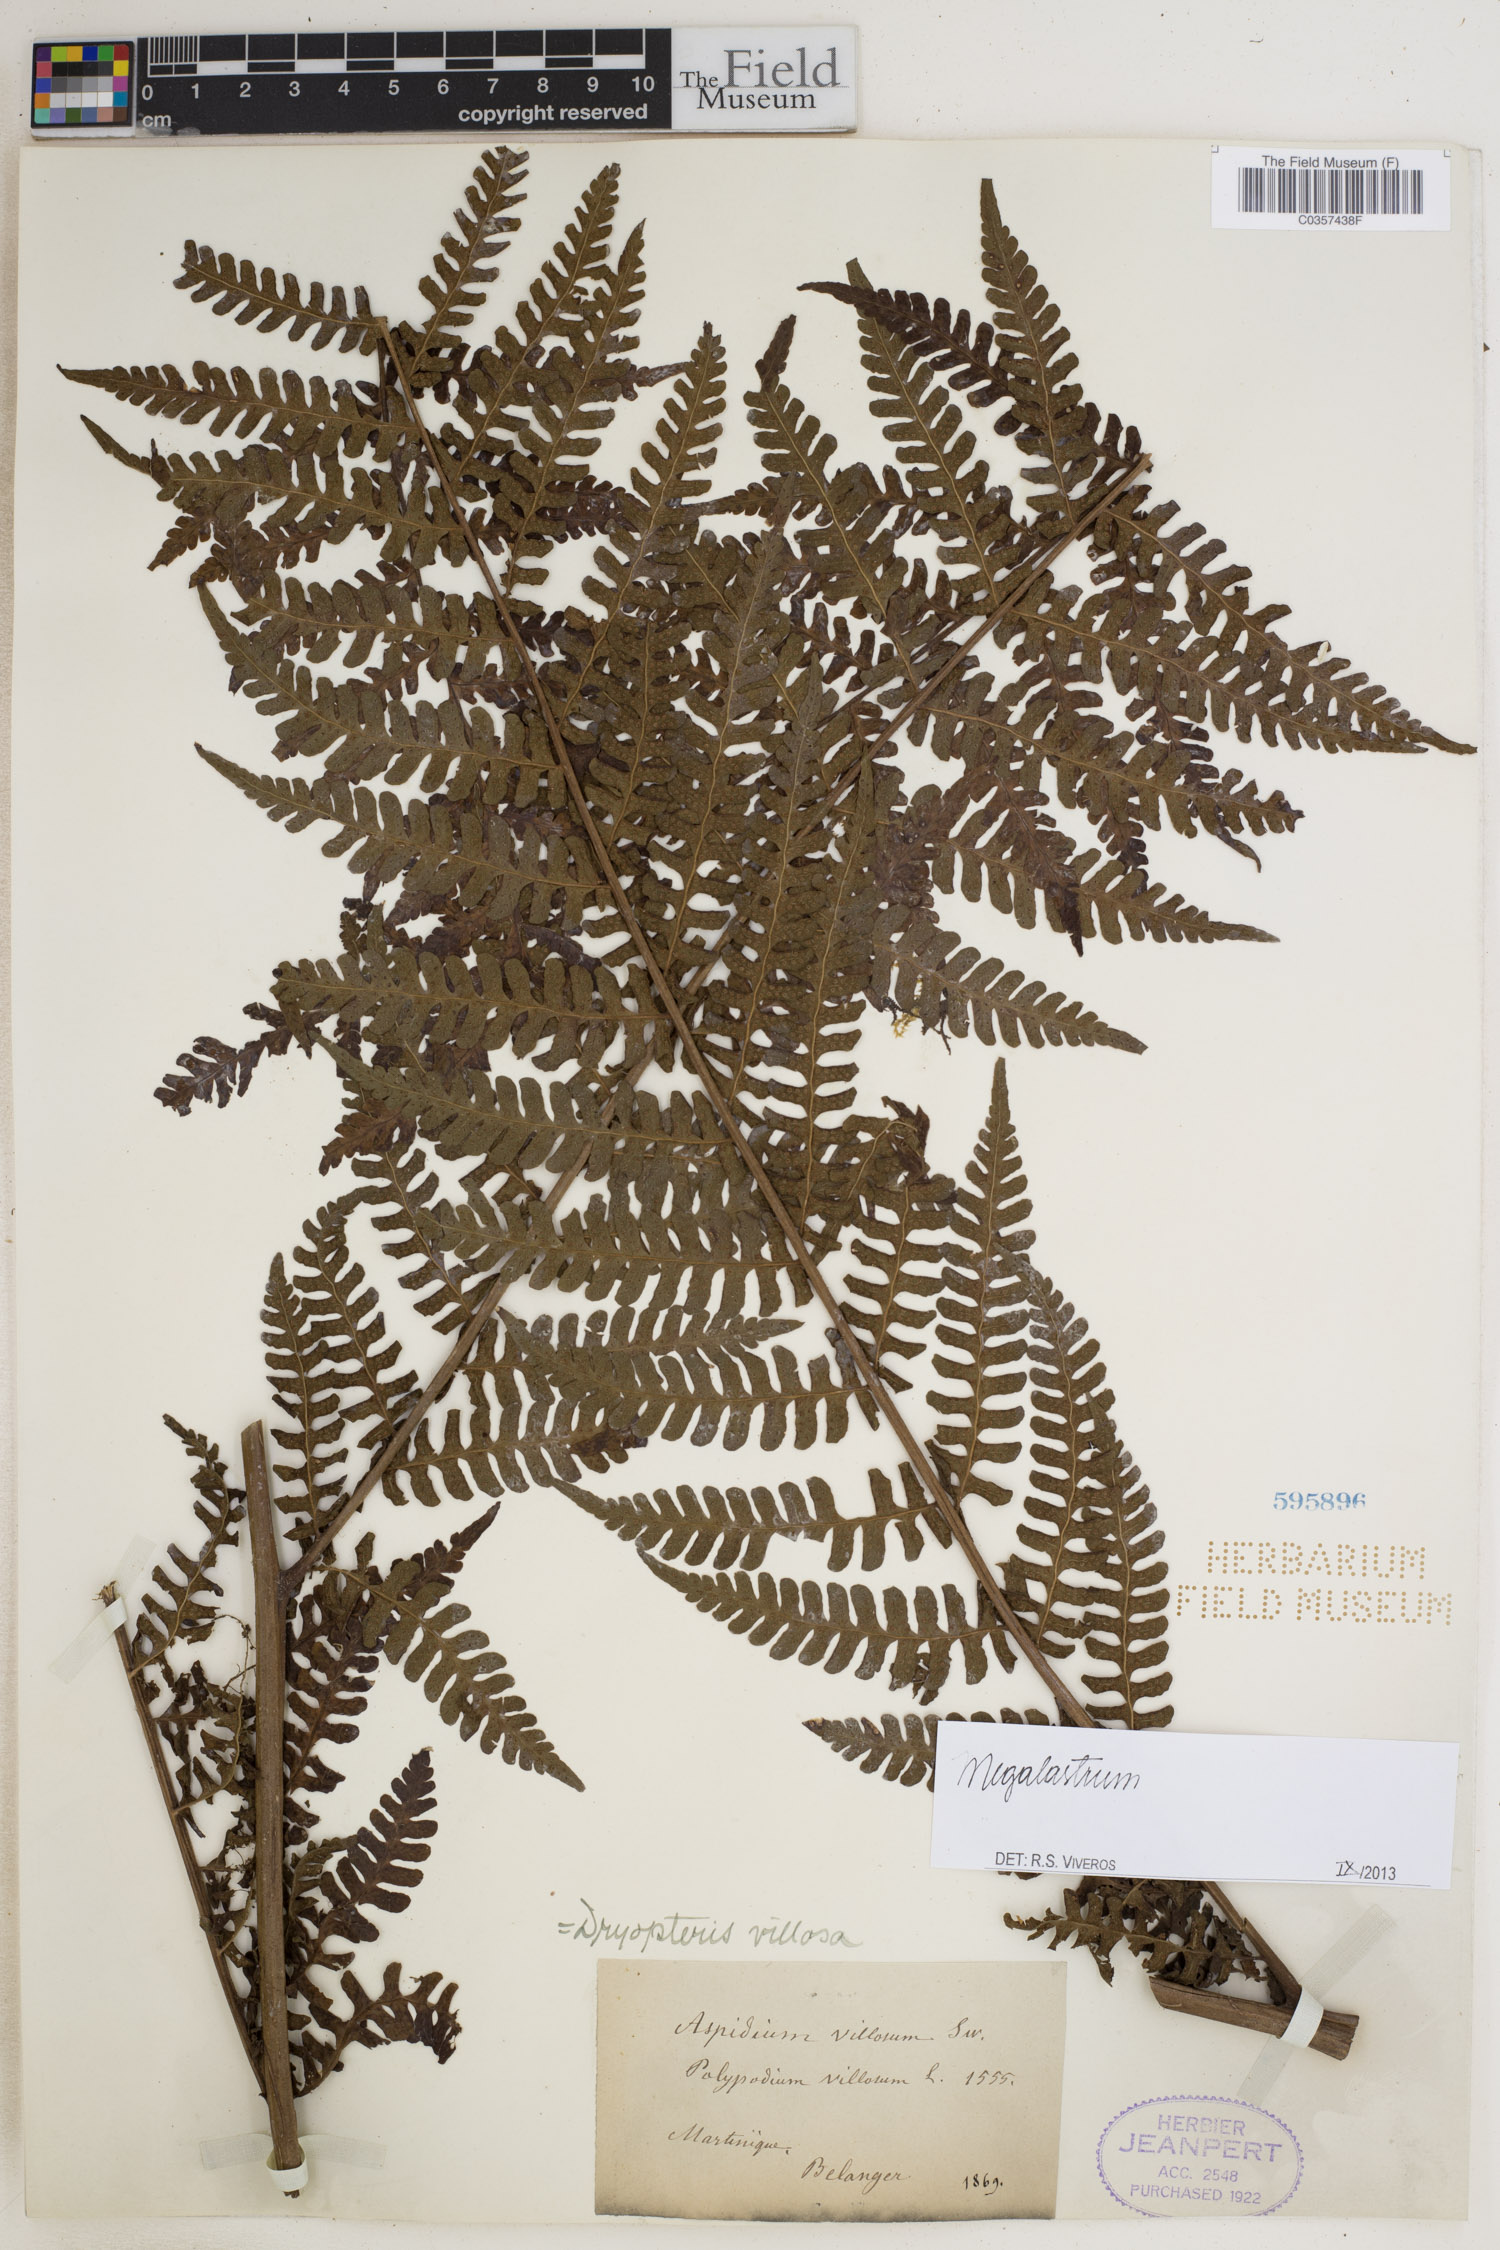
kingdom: Plantae
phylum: Tracheophyta
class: Polypodiopsida
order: Polypodiales
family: Dryopteridaceae
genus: Megalastrum
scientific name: Megalastrum
